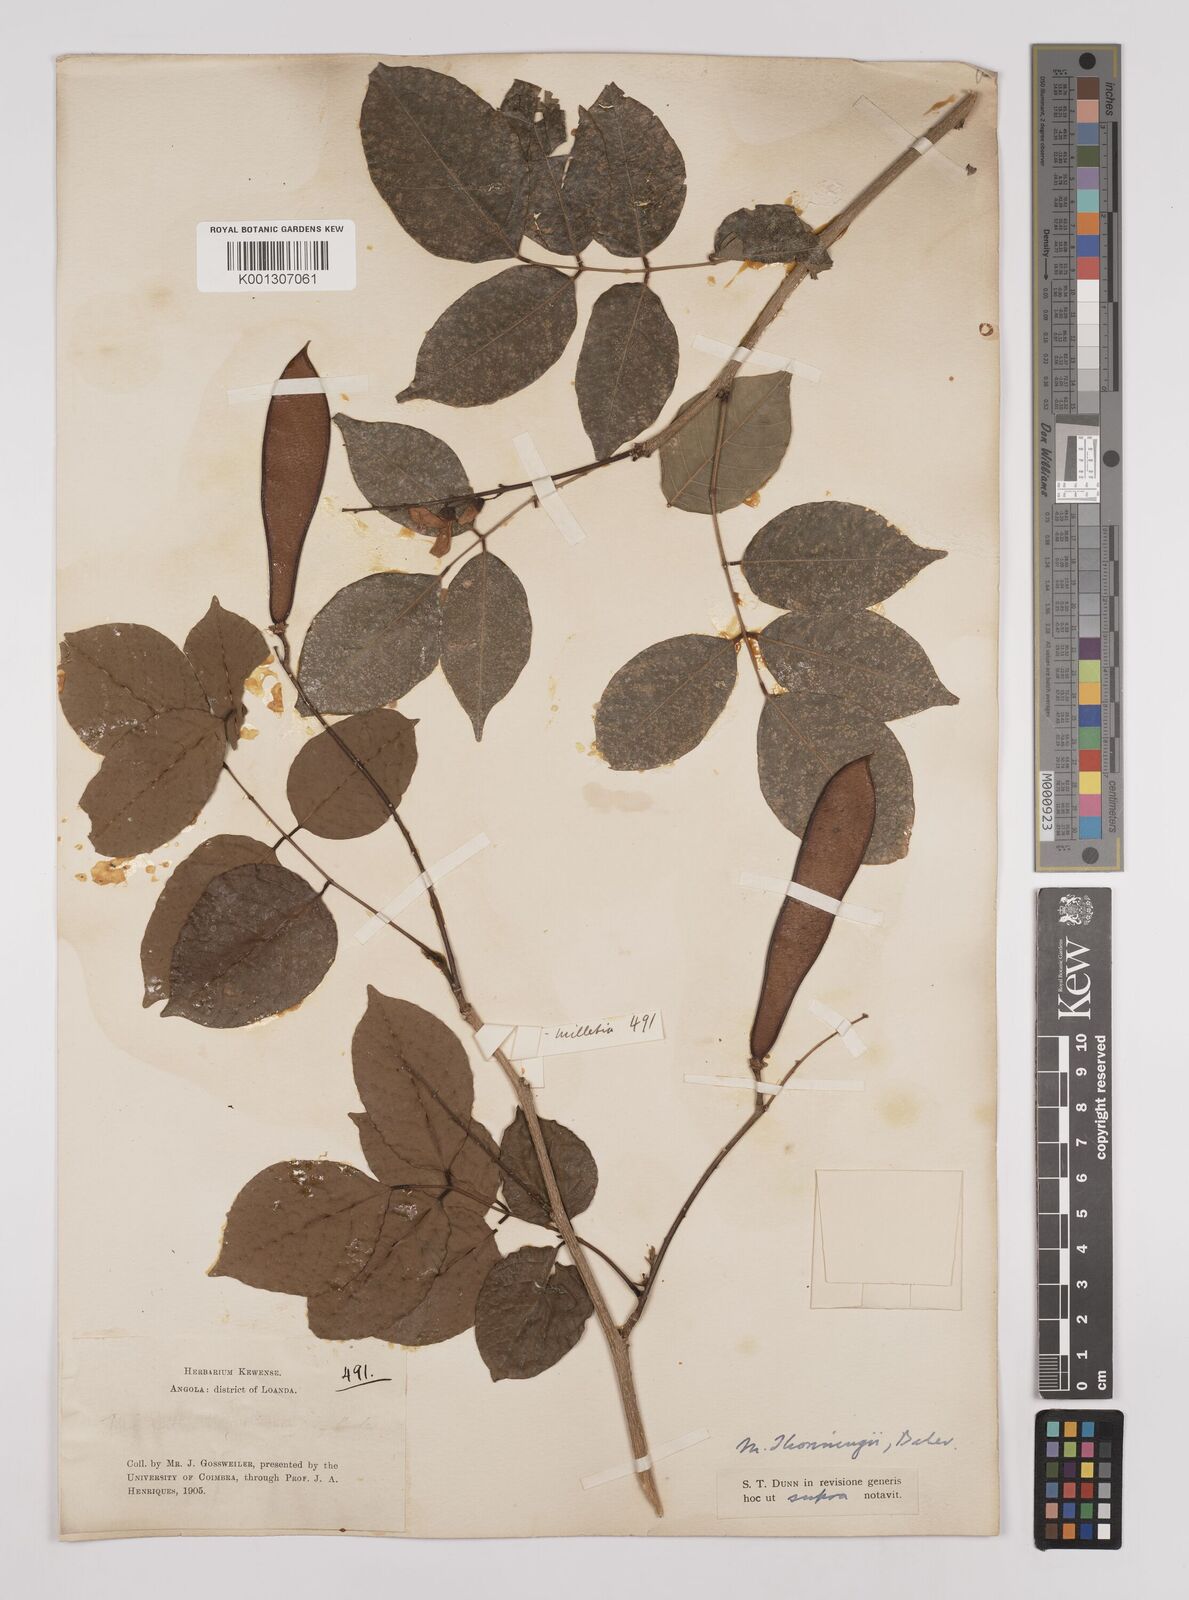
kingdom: Plantae
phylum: Tracheophyta
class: Magnoliopsida
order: Fabales
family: Fabaceae
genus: Millettia
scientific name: Millettia thonningii
